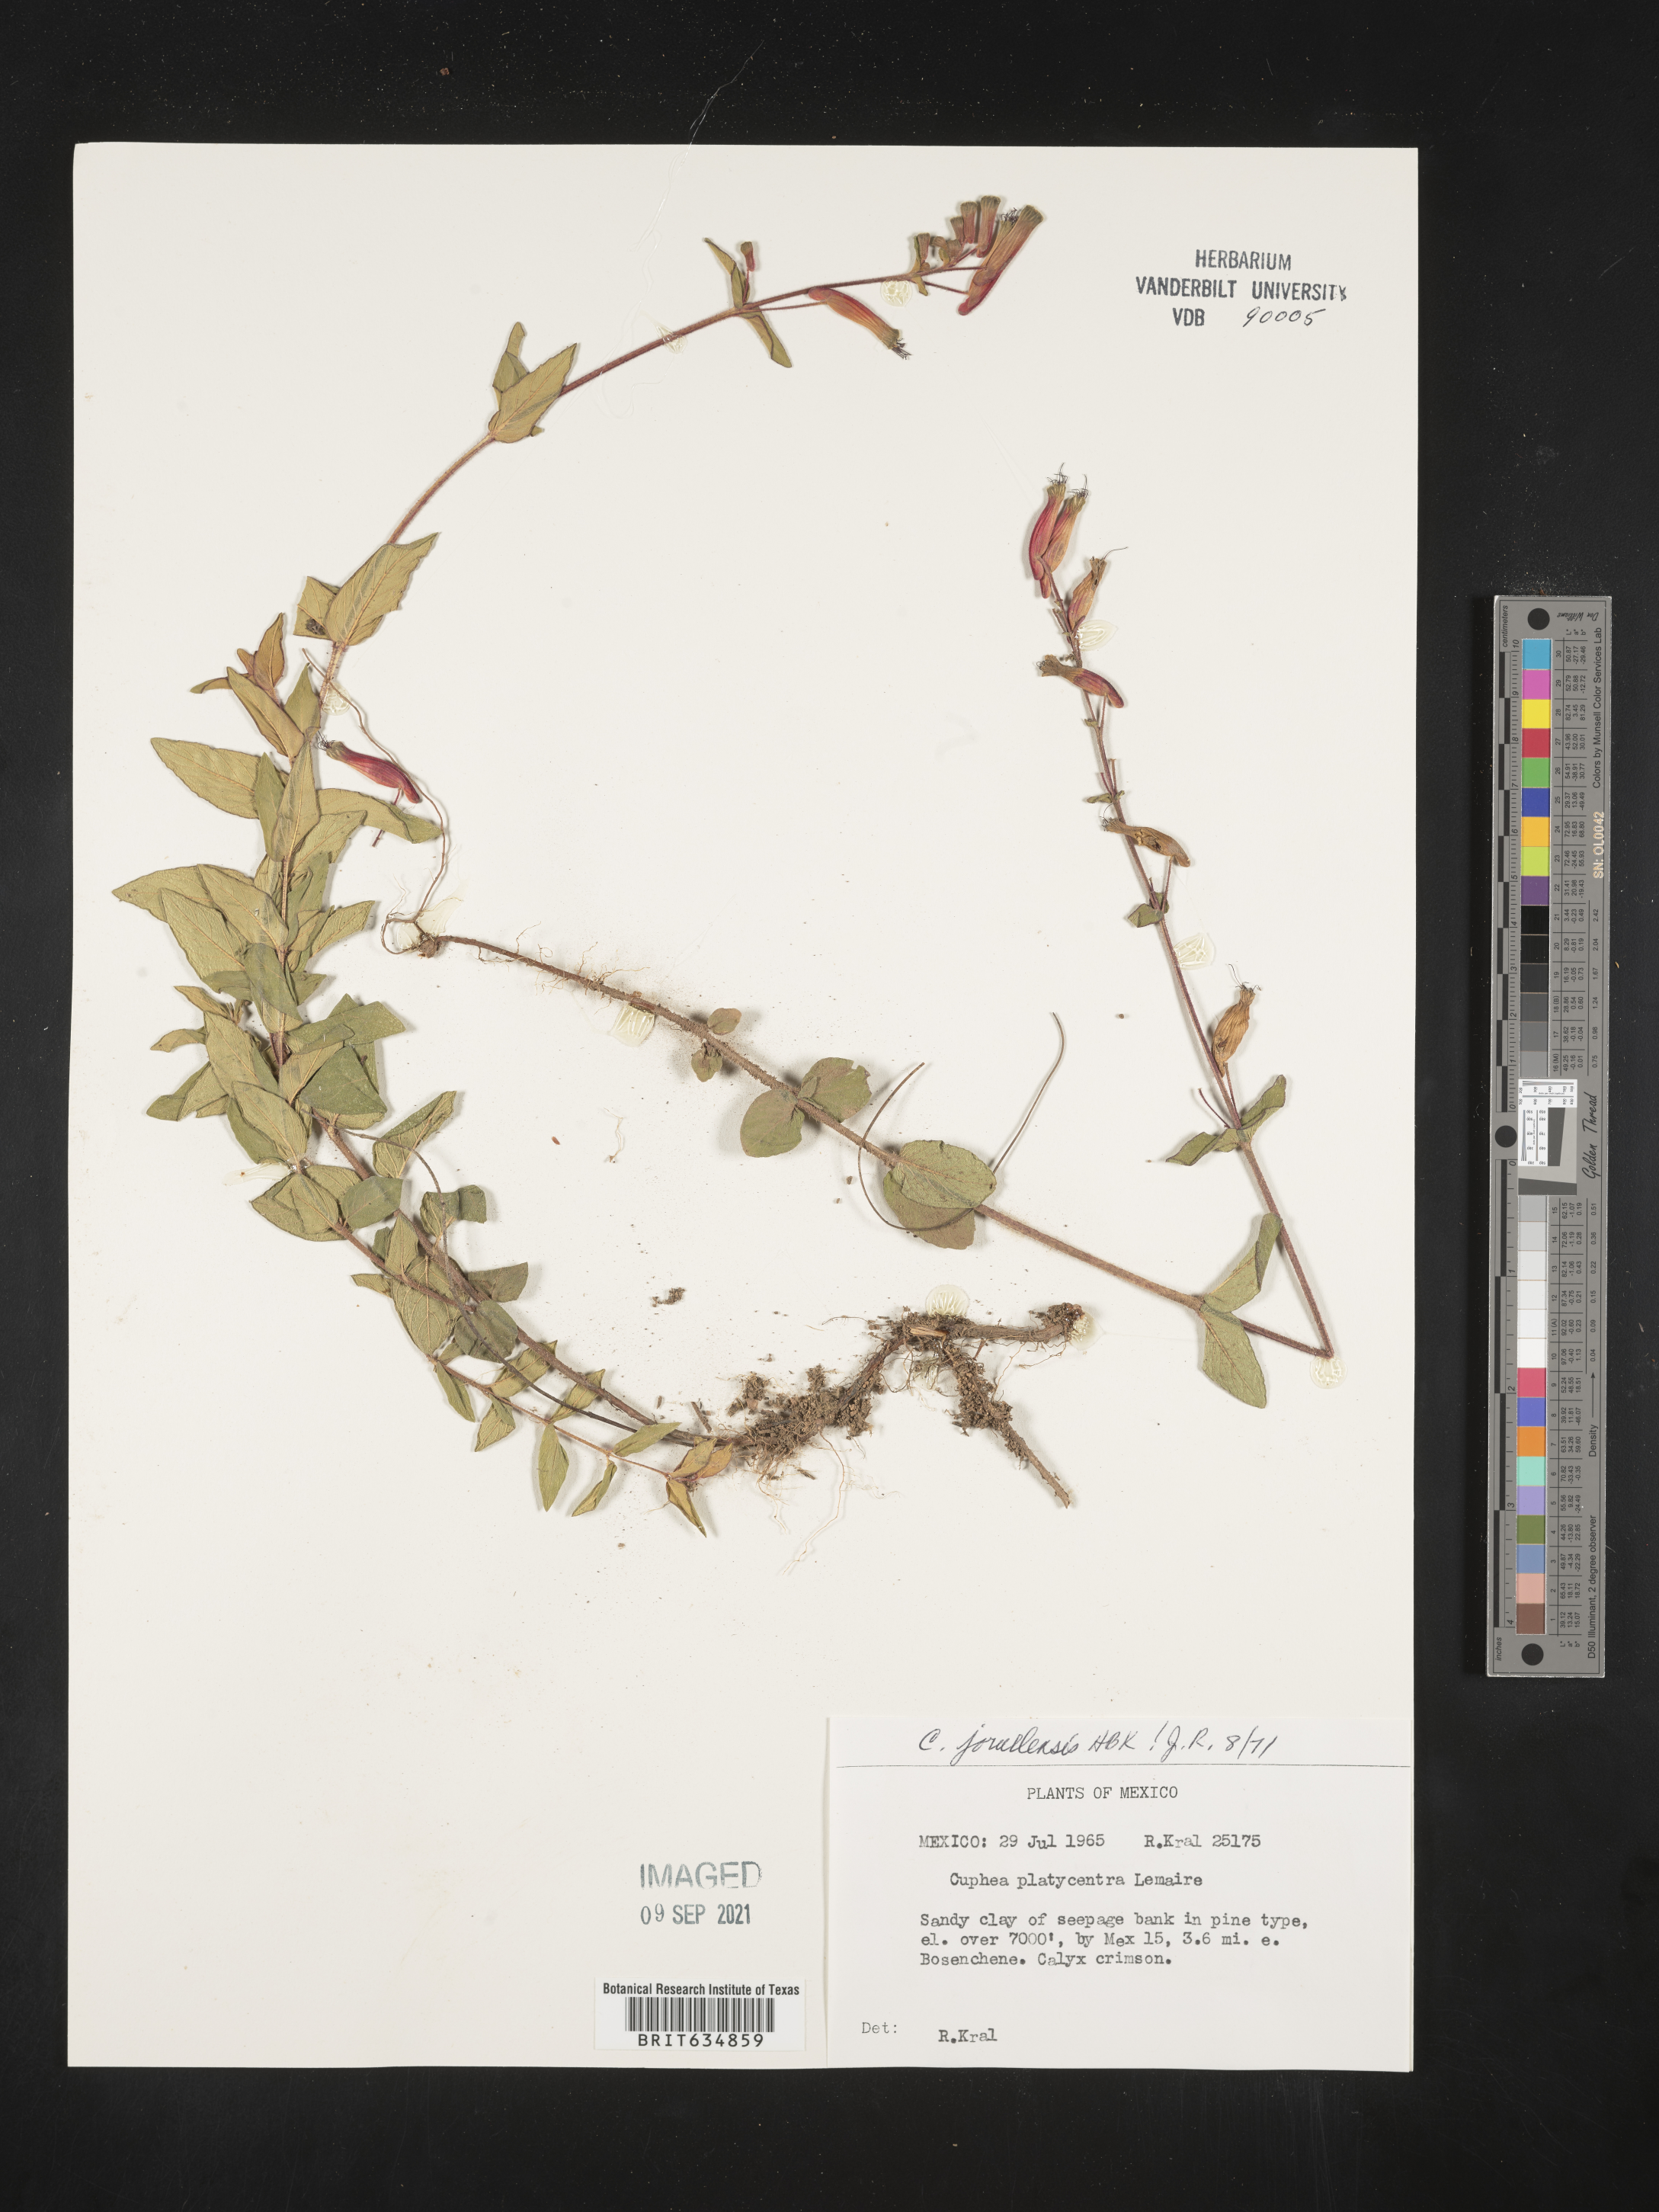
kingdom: Plantae
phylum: Tracheophyta
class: Magnoliopsida
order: Myrtales
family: Lythraceae
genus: Cuphea
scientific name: Cuphea
